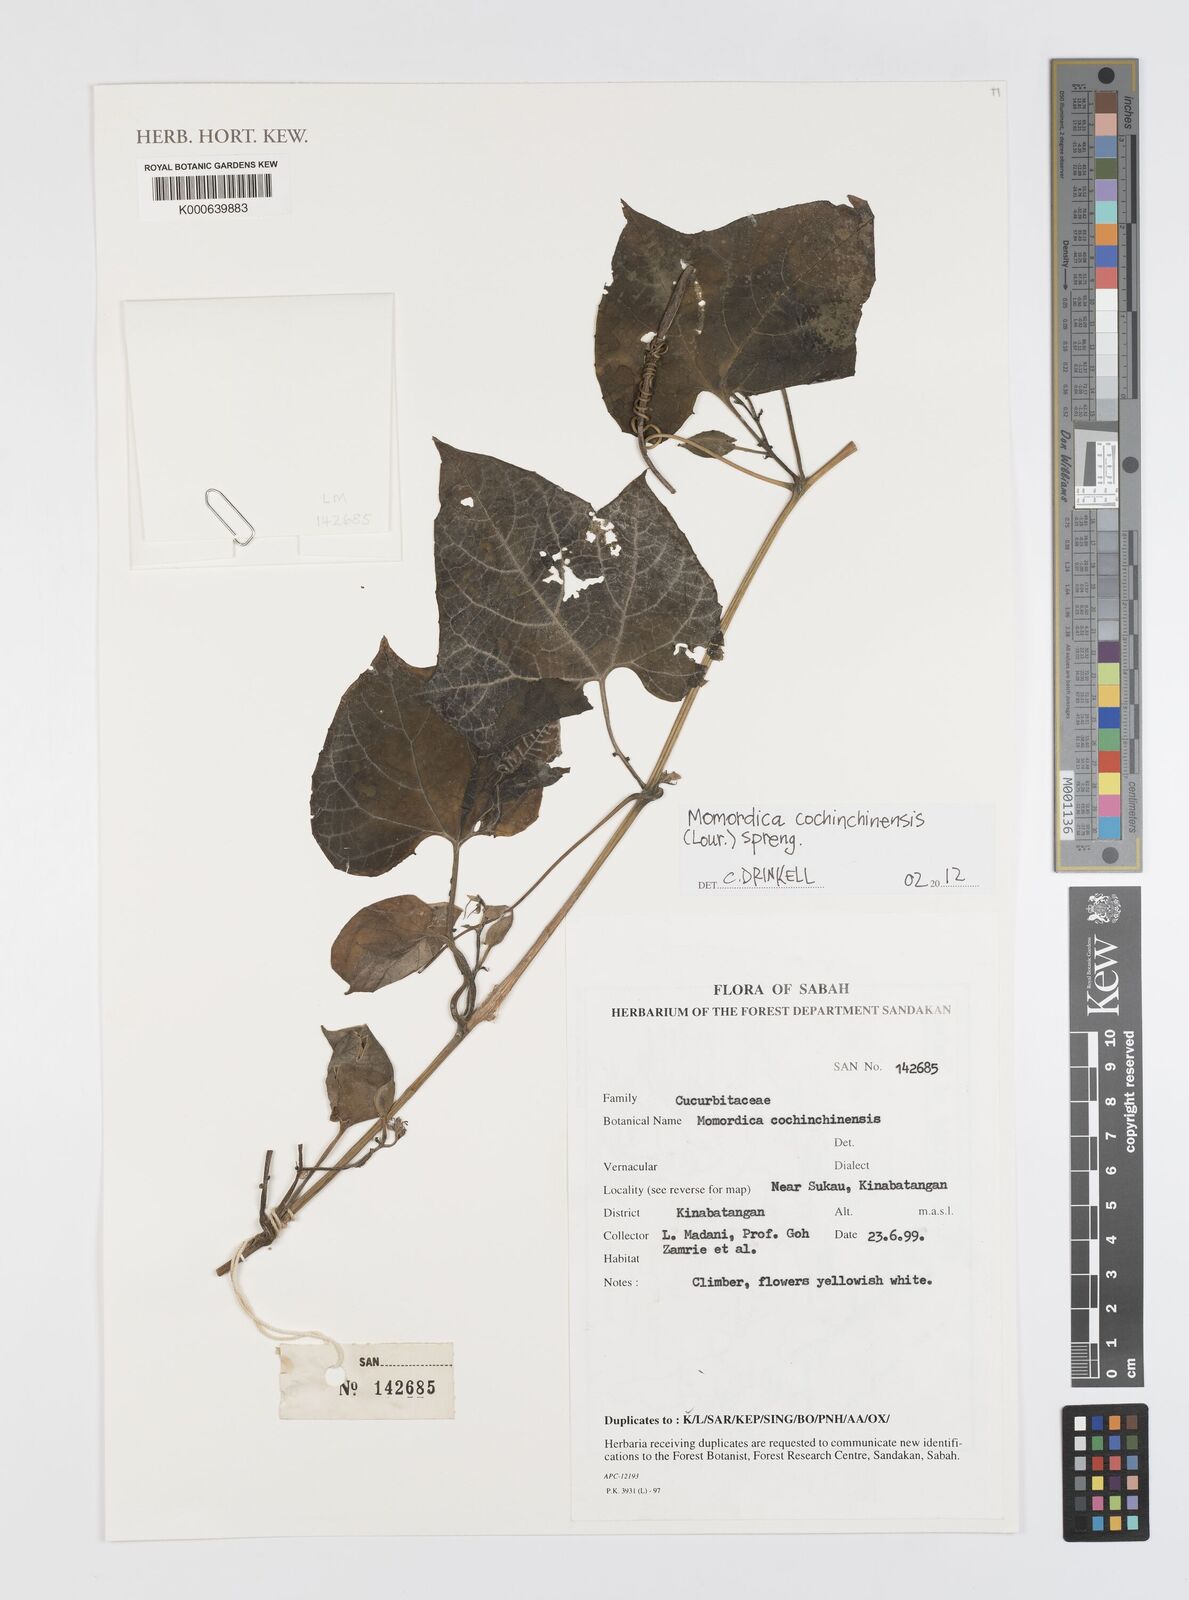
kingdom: Plantae
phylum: Tracheophyta
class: Magnoliopsida
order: Cucurbitales
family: Cucurbitaceae
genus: Momordica
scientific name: Momordica cochinchinensis
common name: Chinese bitter-cucumber
